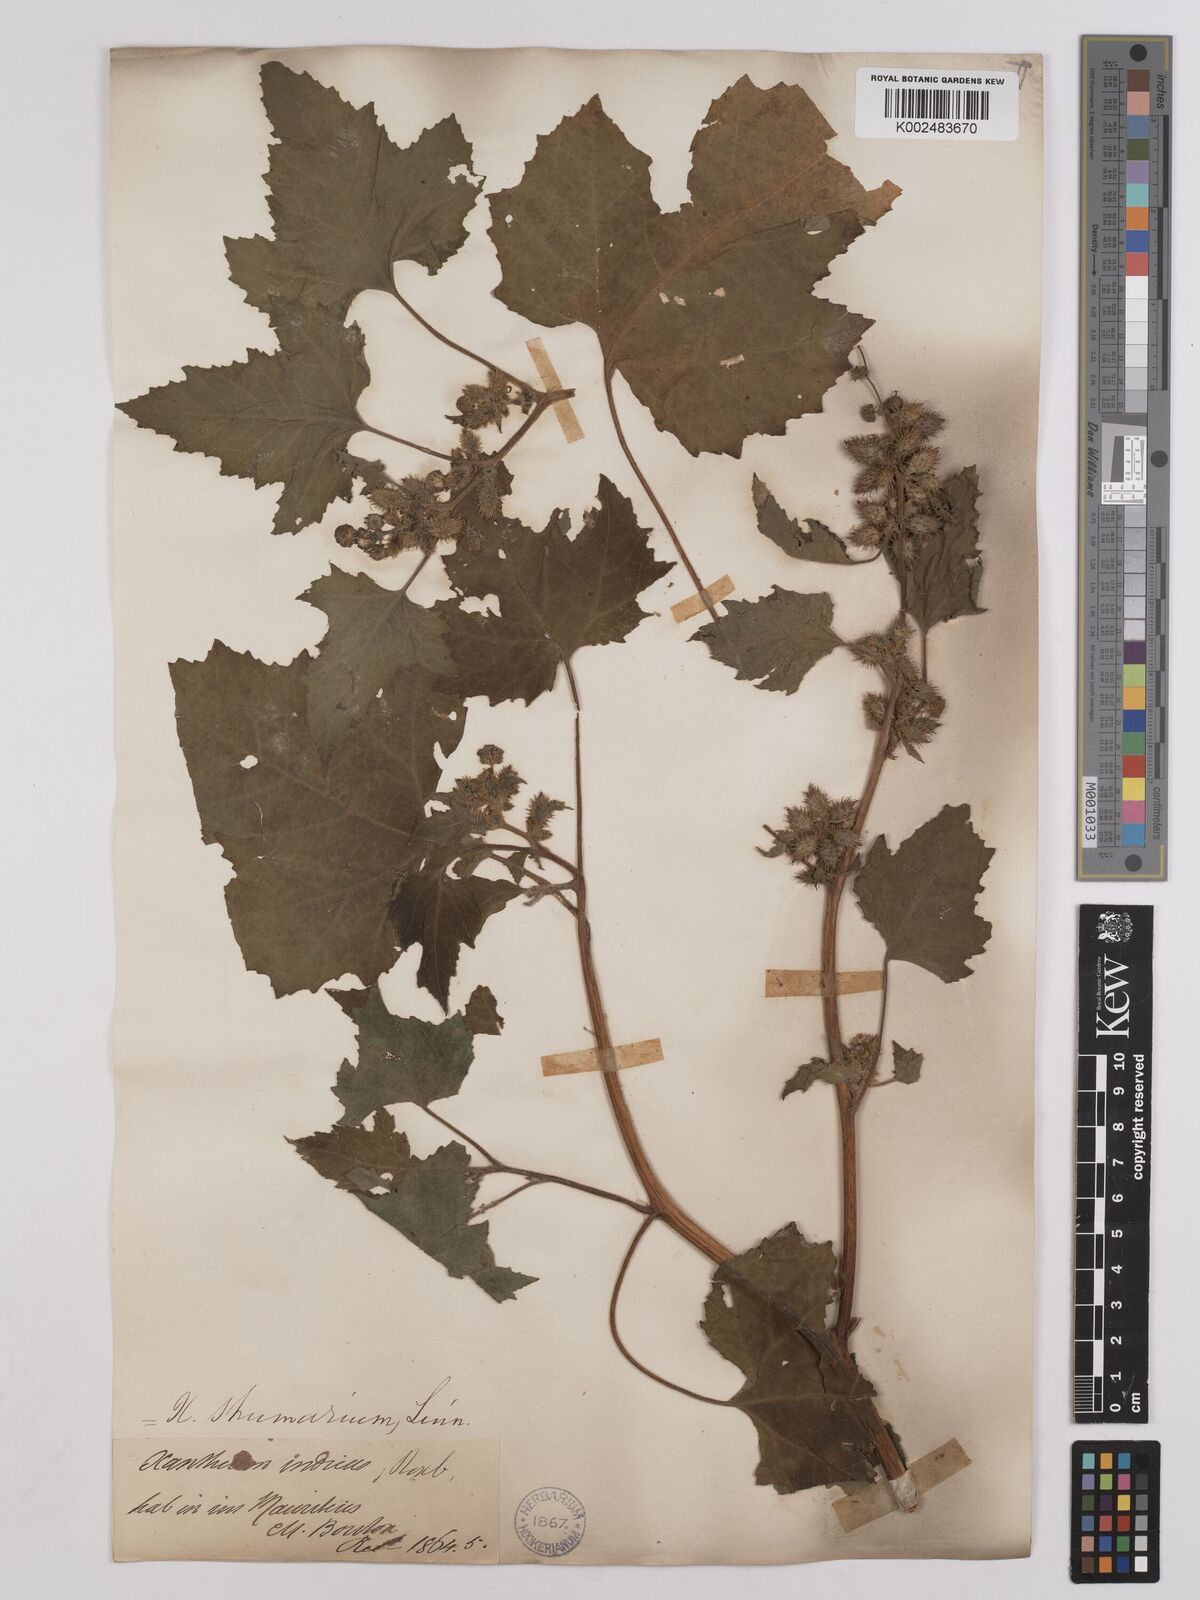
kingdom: Plantae
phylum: Tracheophyta
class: Magnoliopsida
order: Asterales
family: Asteraceae
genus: Xanthium
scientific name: Xanthium strumarium
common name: Rough cocklebur
